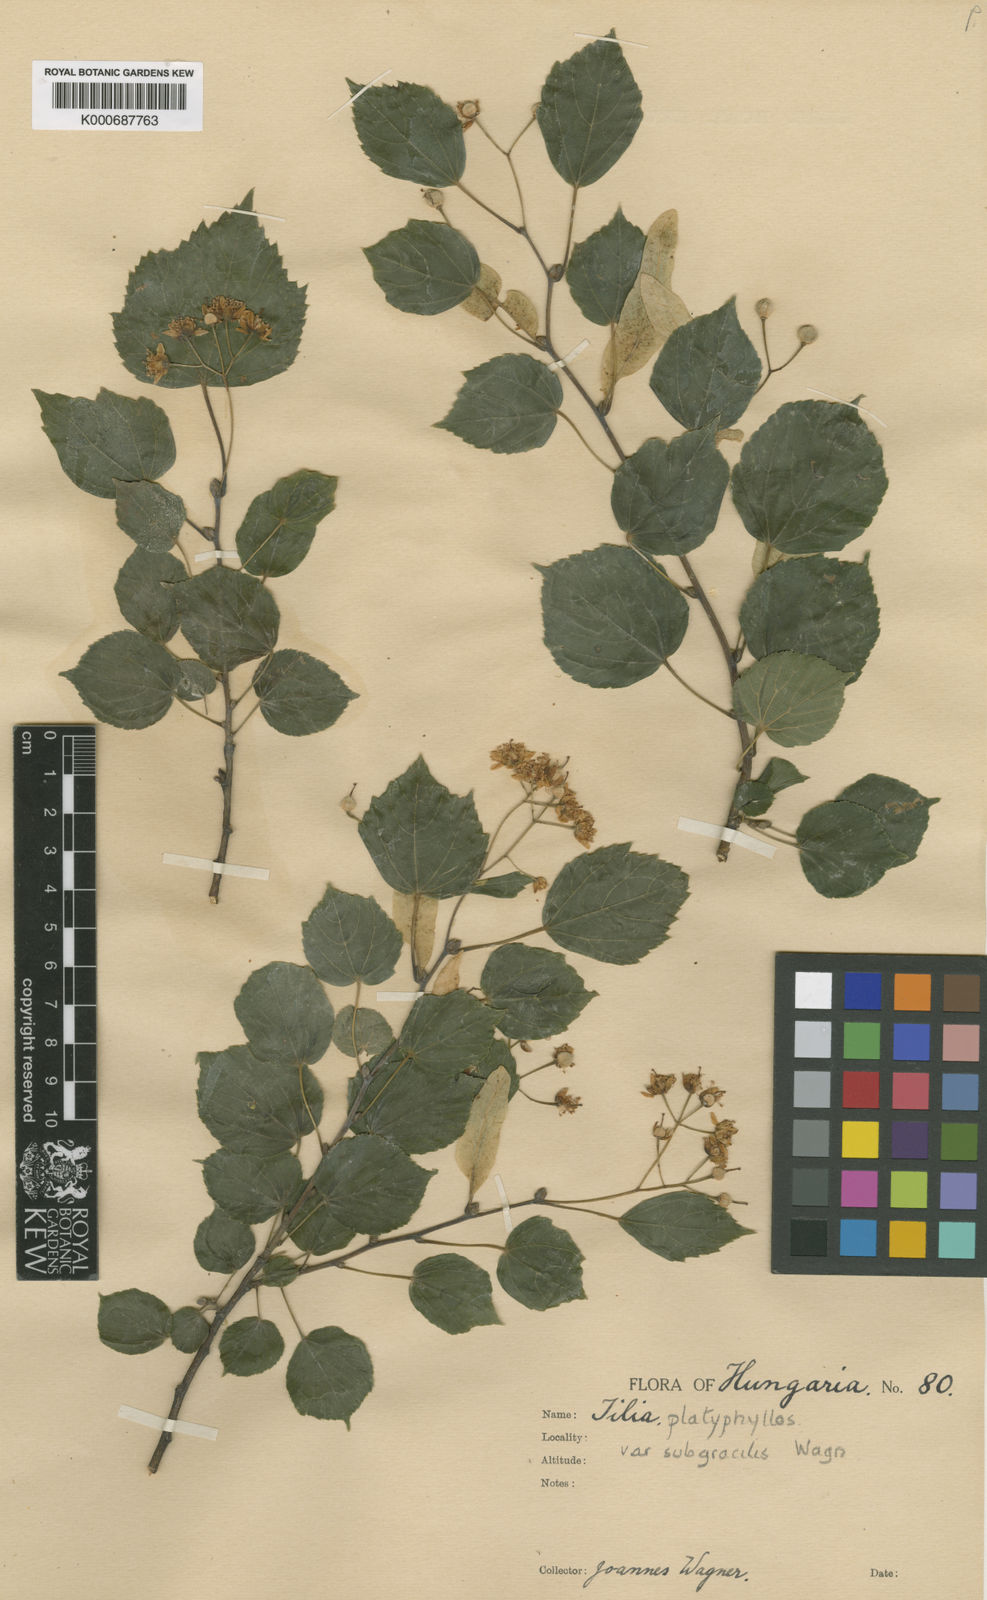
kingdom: Plantae
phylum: Tracheophyta
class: Magnoliopsida
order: Malvales
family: Malvaceae
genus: Tilia
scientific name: Tilia platyphyllos
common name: Large-leaved lime
